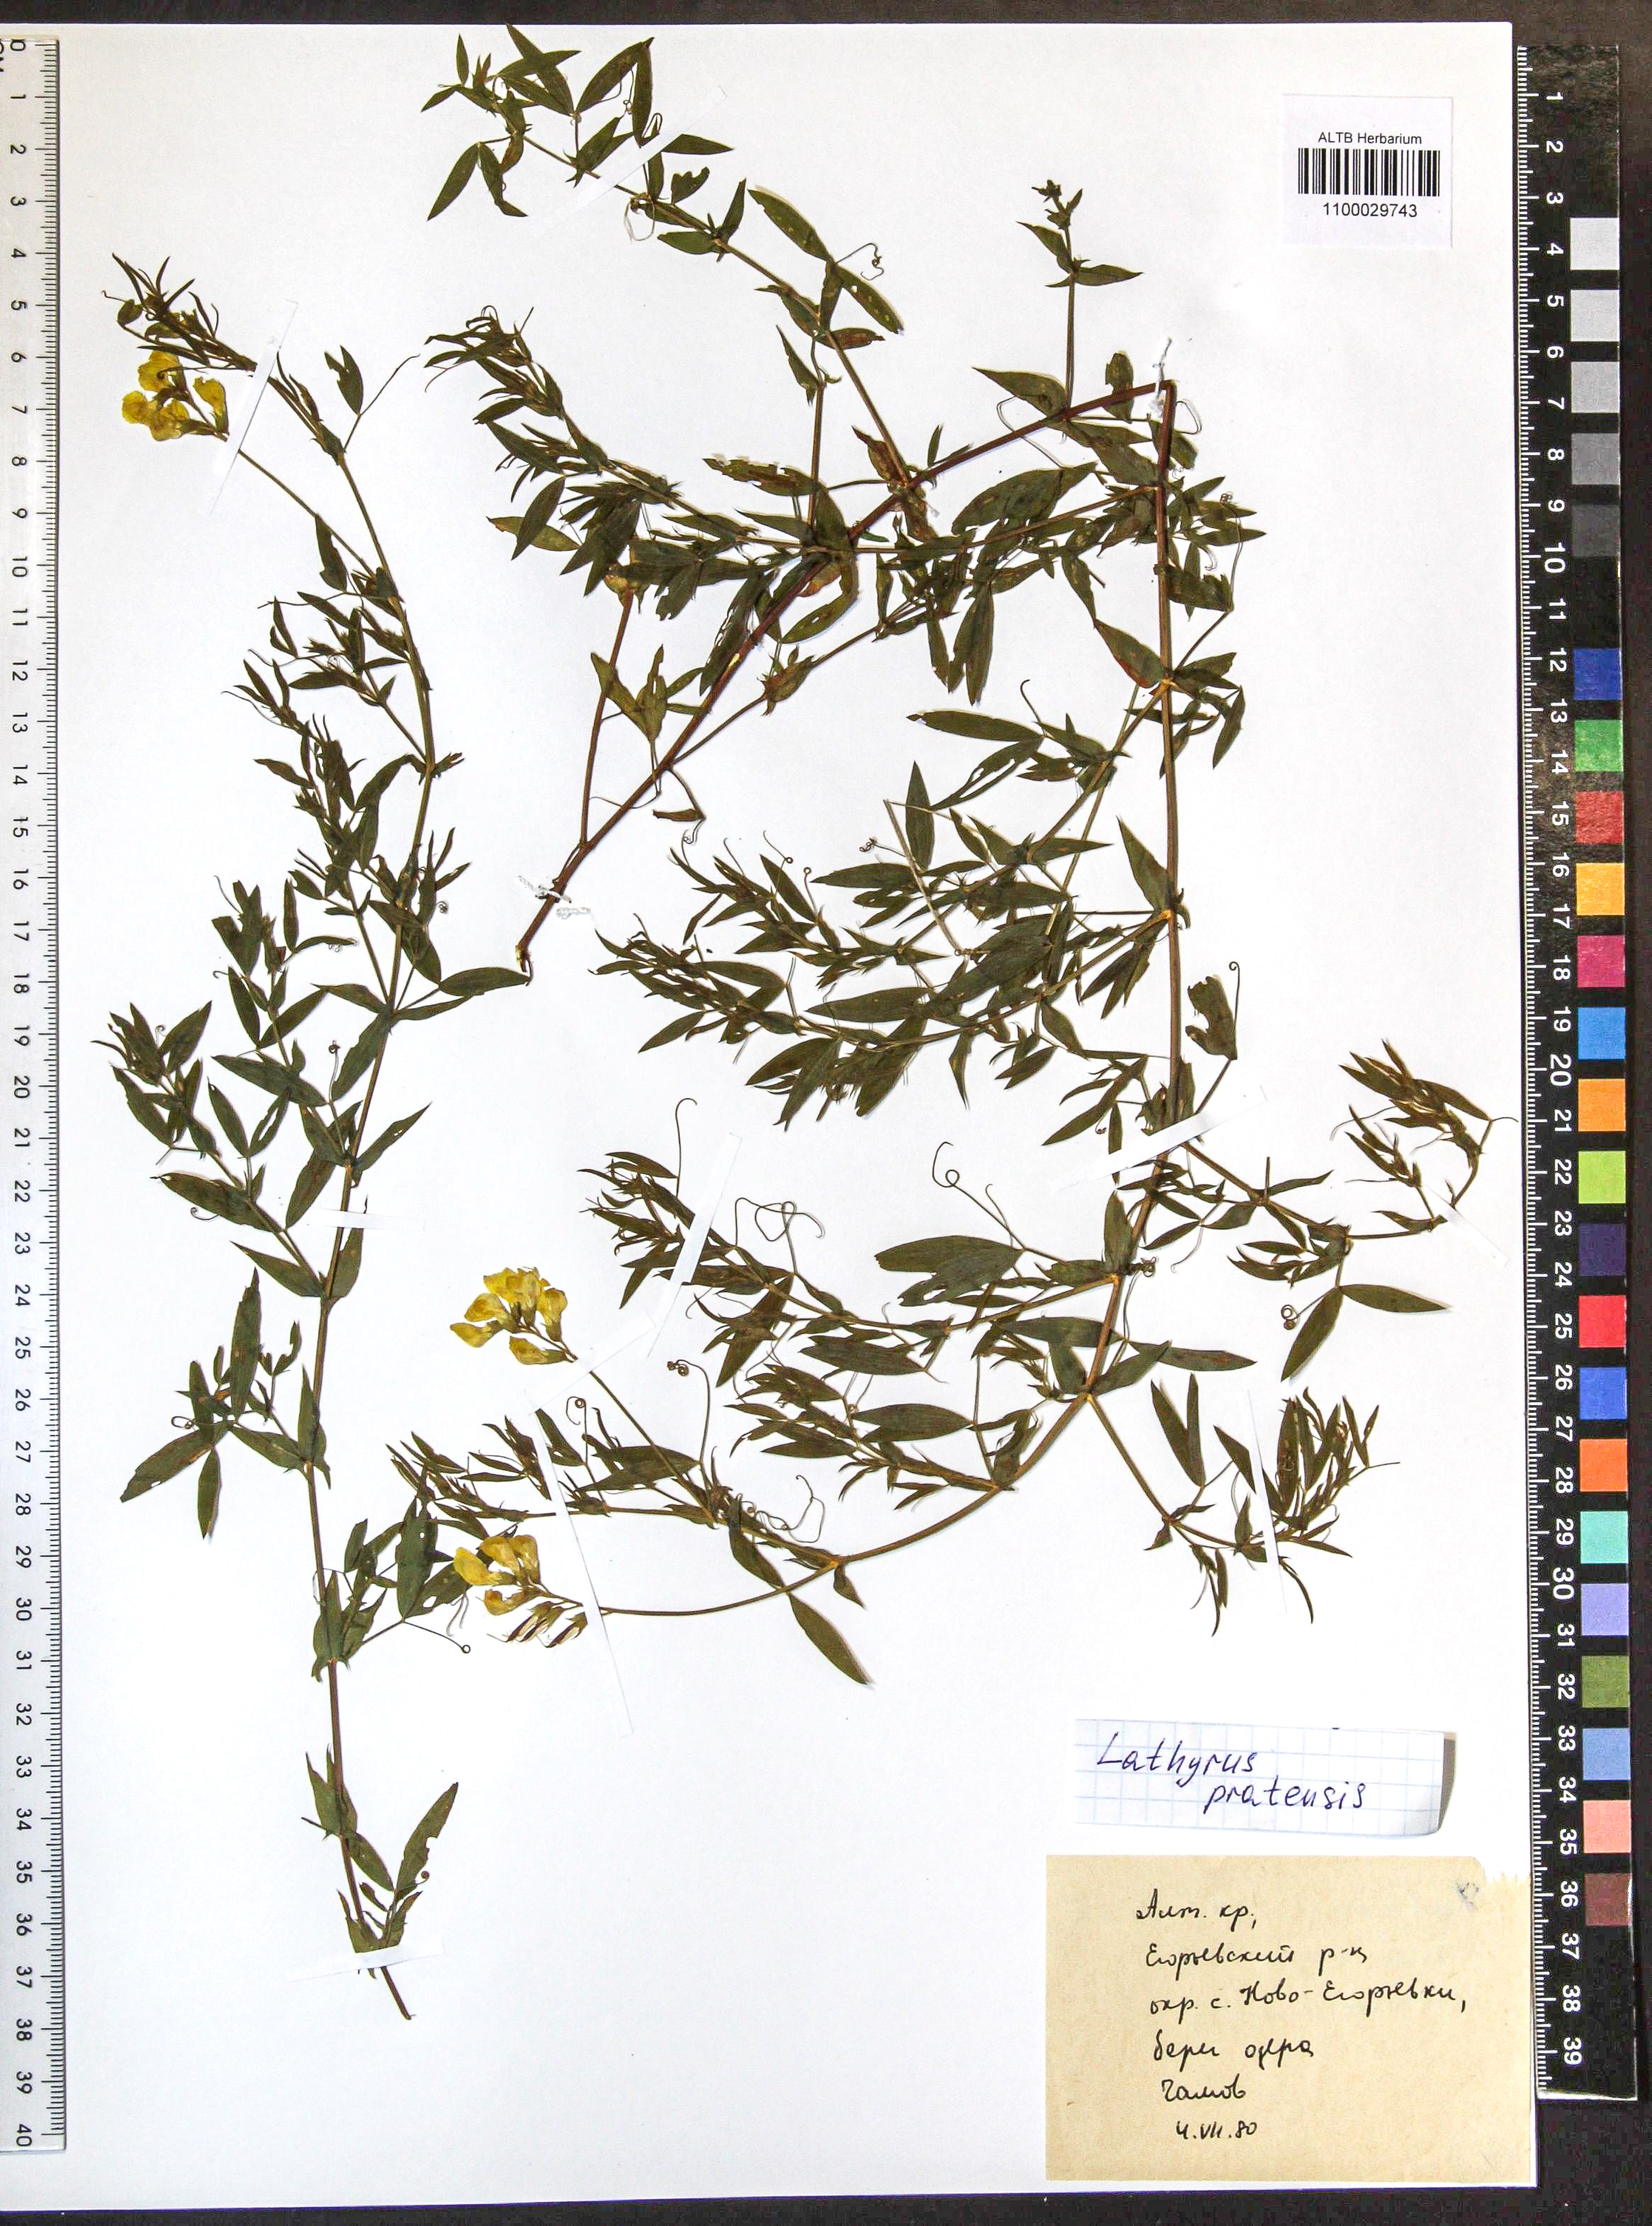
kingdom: Plantae
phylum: Tracheophyta
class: Magnoliopsida
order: Fabales
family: Fabaceae
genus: Lathyrus
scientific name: Lathyrus pratensis
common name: Meadow vetchling
